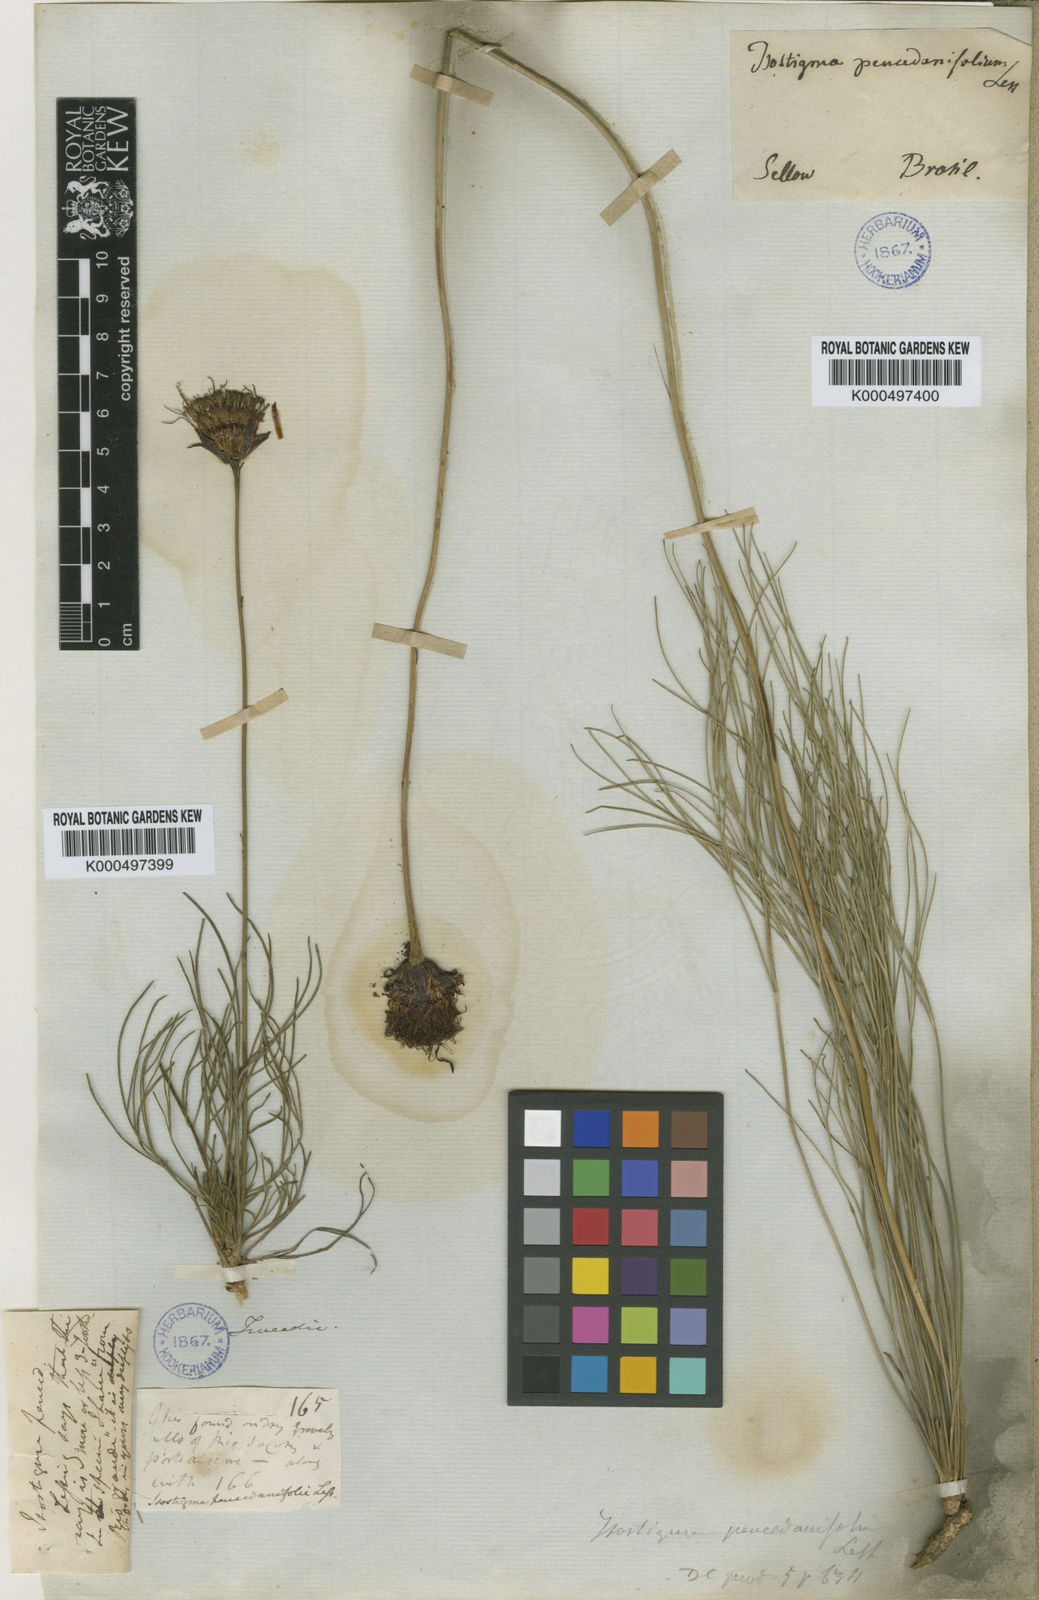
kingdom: Plantae
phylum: Tracheophyta
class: Magnoliopsida
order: Asterales
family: Asteraceae
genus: Isostigma
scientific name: Isostigma peucedanifolium
